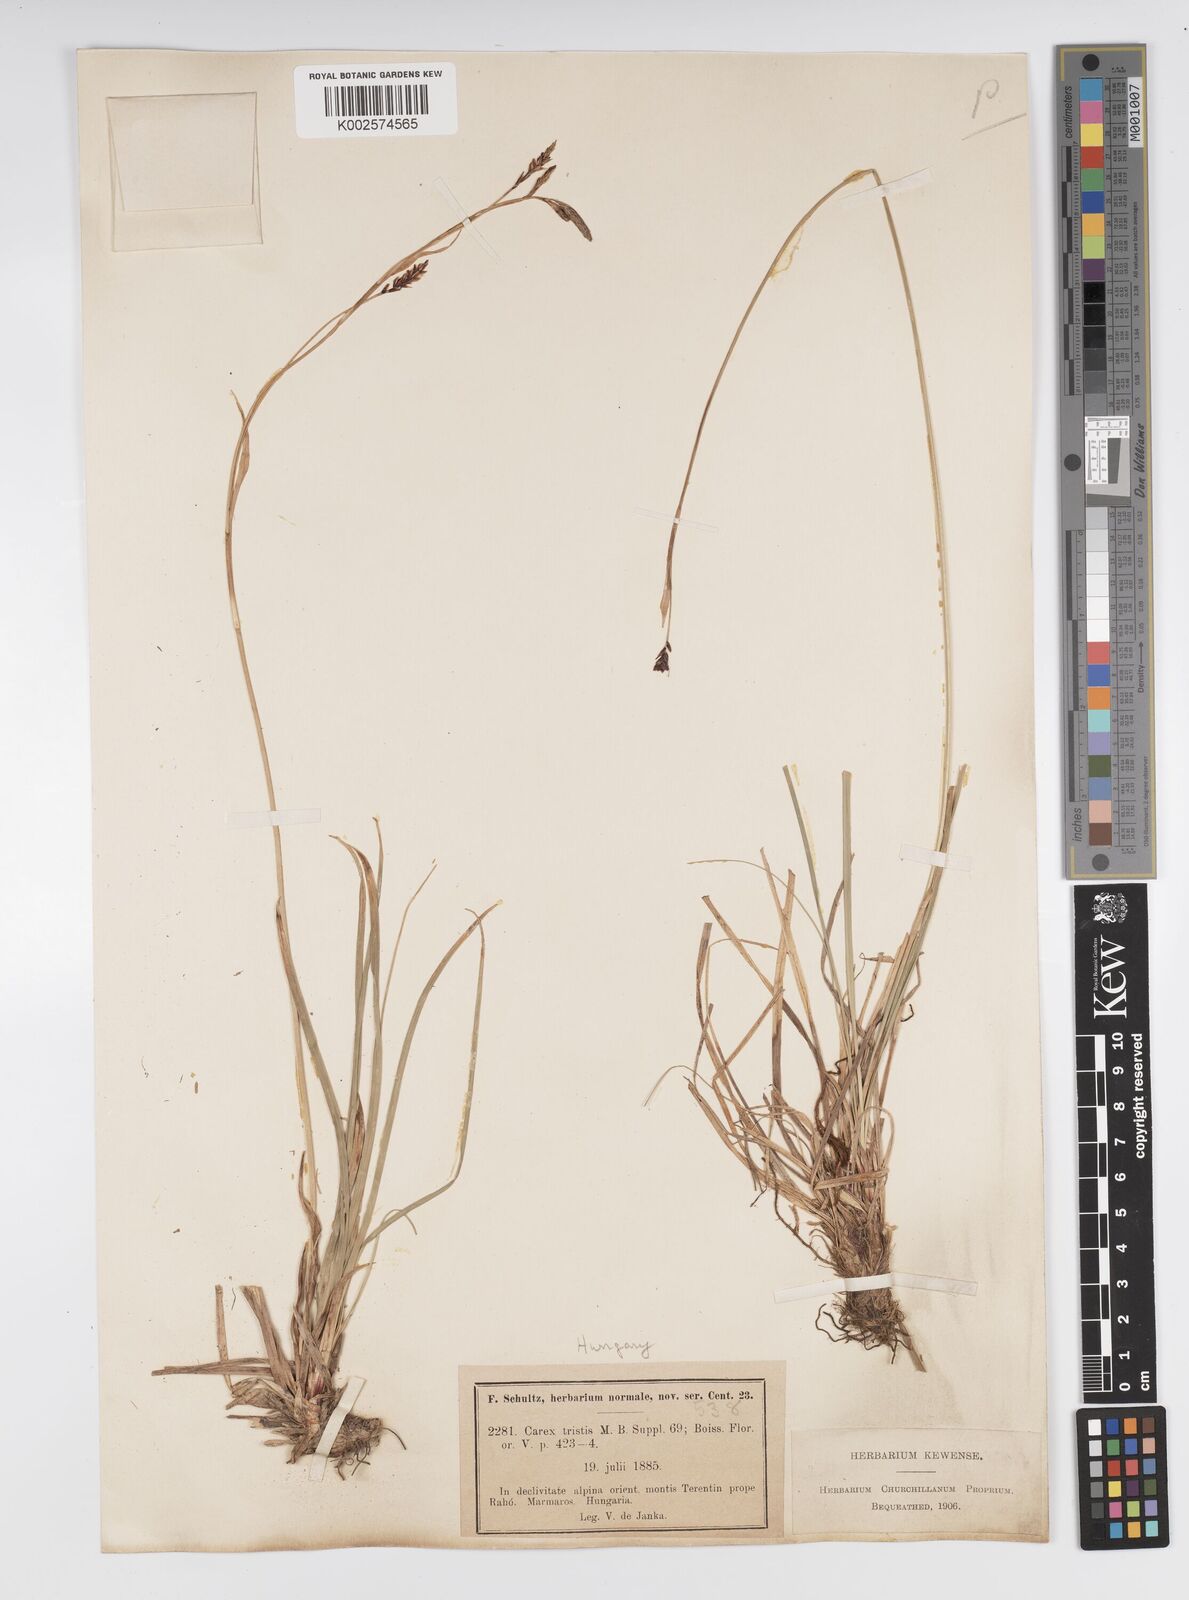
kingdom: Plantae
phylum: Tracheophyta
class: Liliopsida
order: Poales
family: Cyperaceae
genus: Carex
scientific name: Carex sempervirens
